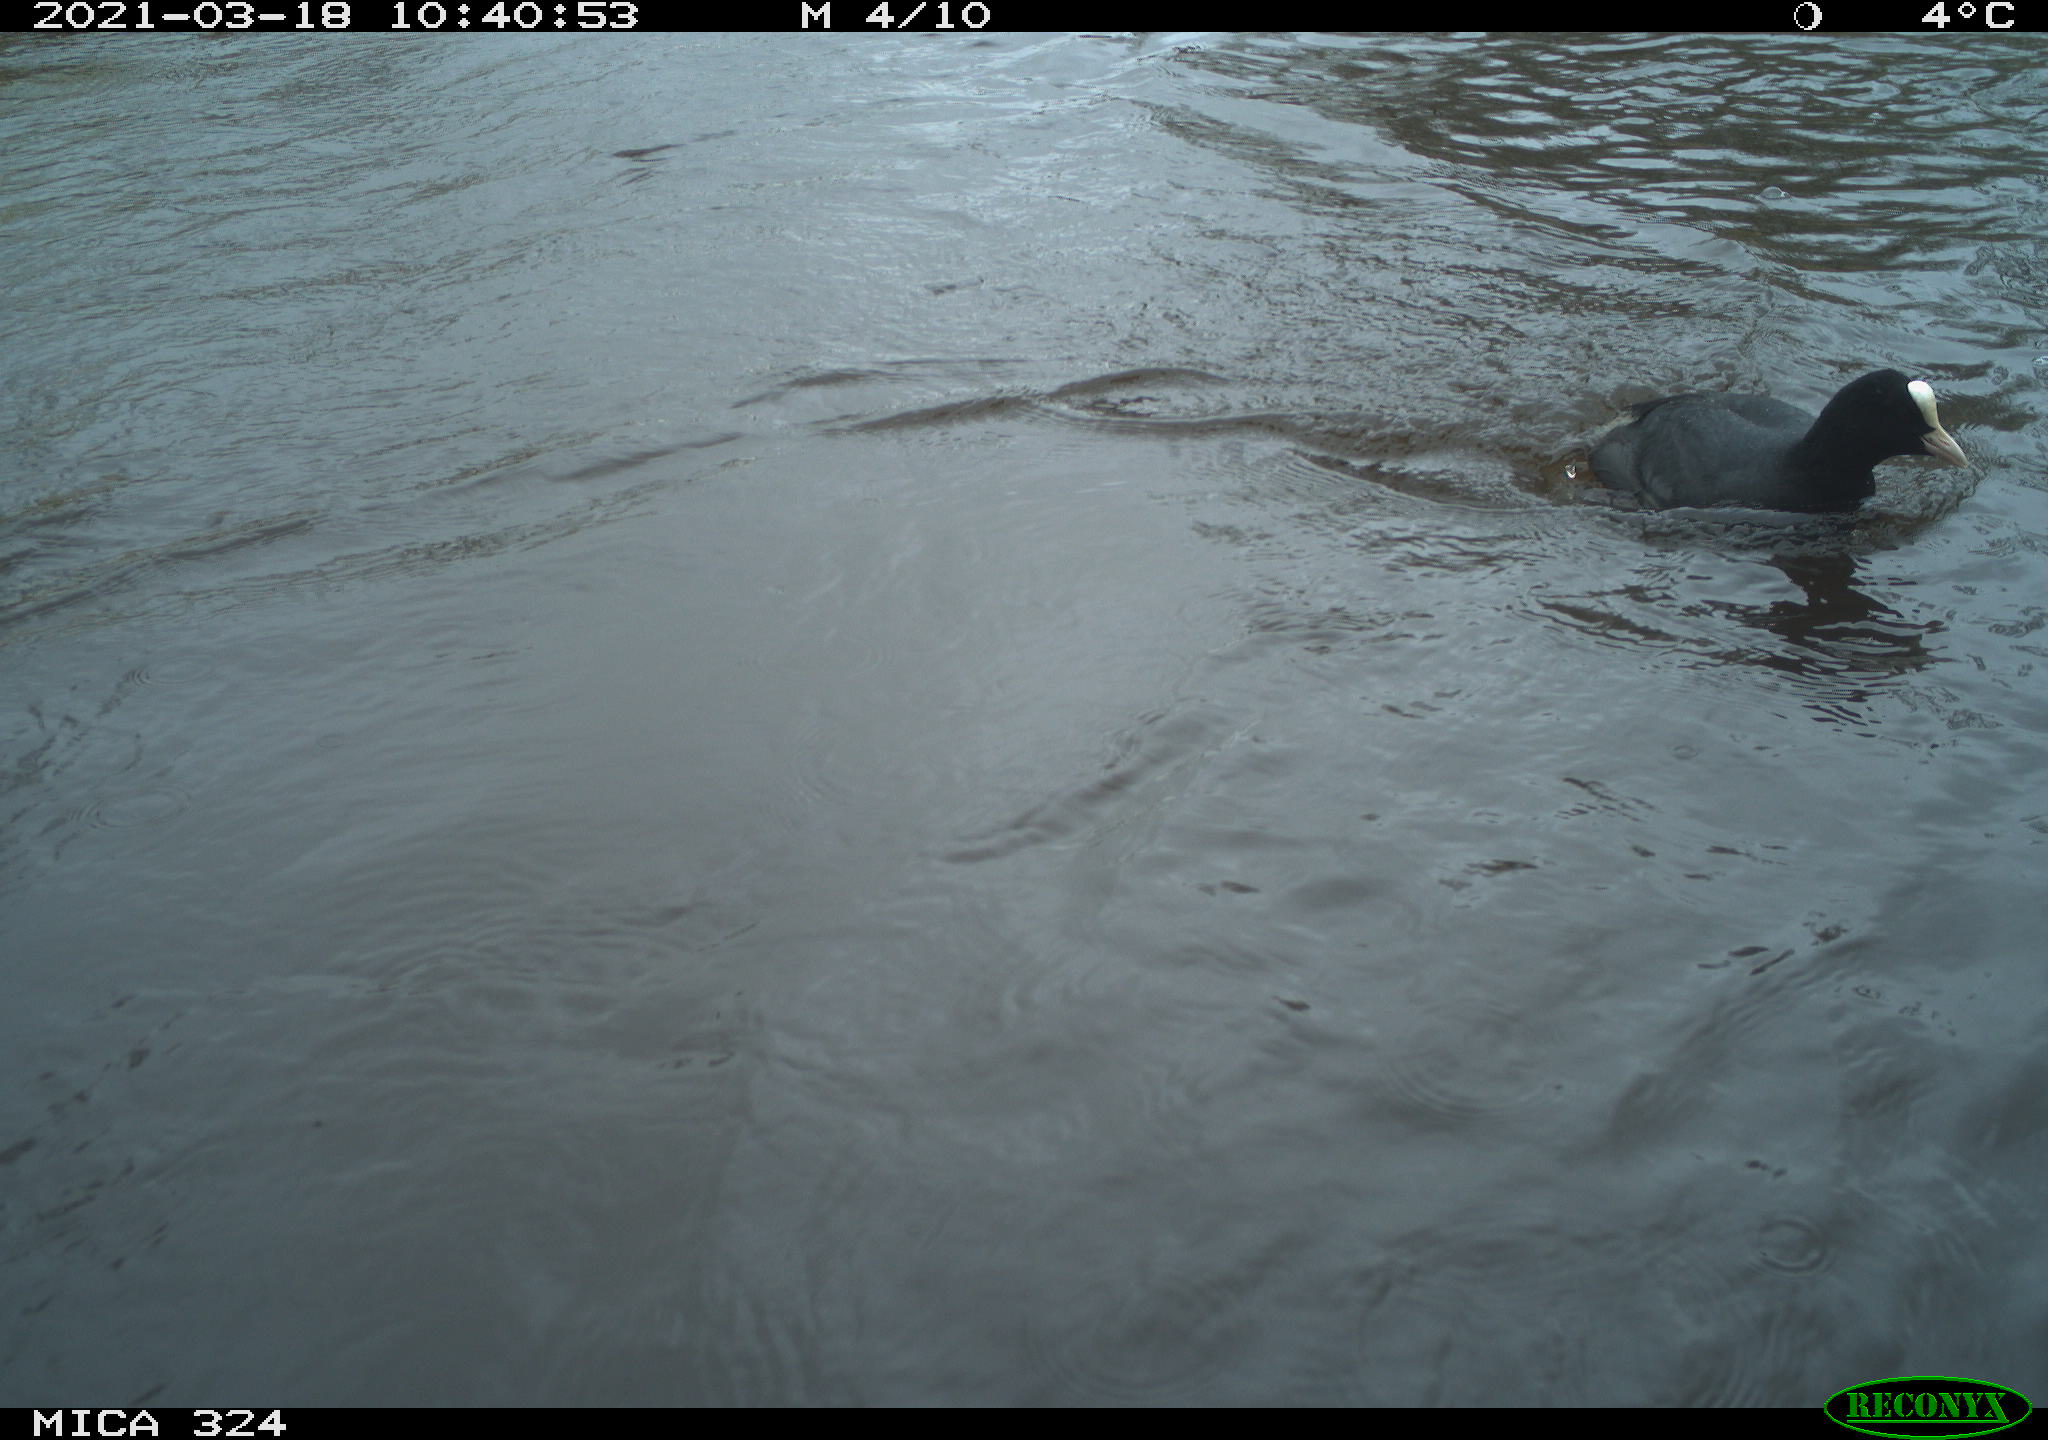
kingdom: Animalia
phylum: Chordata
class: Aves
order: Gruiformes
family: Rallidae
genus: Fulica
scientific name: Fulica atra
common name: Eurasian coot
